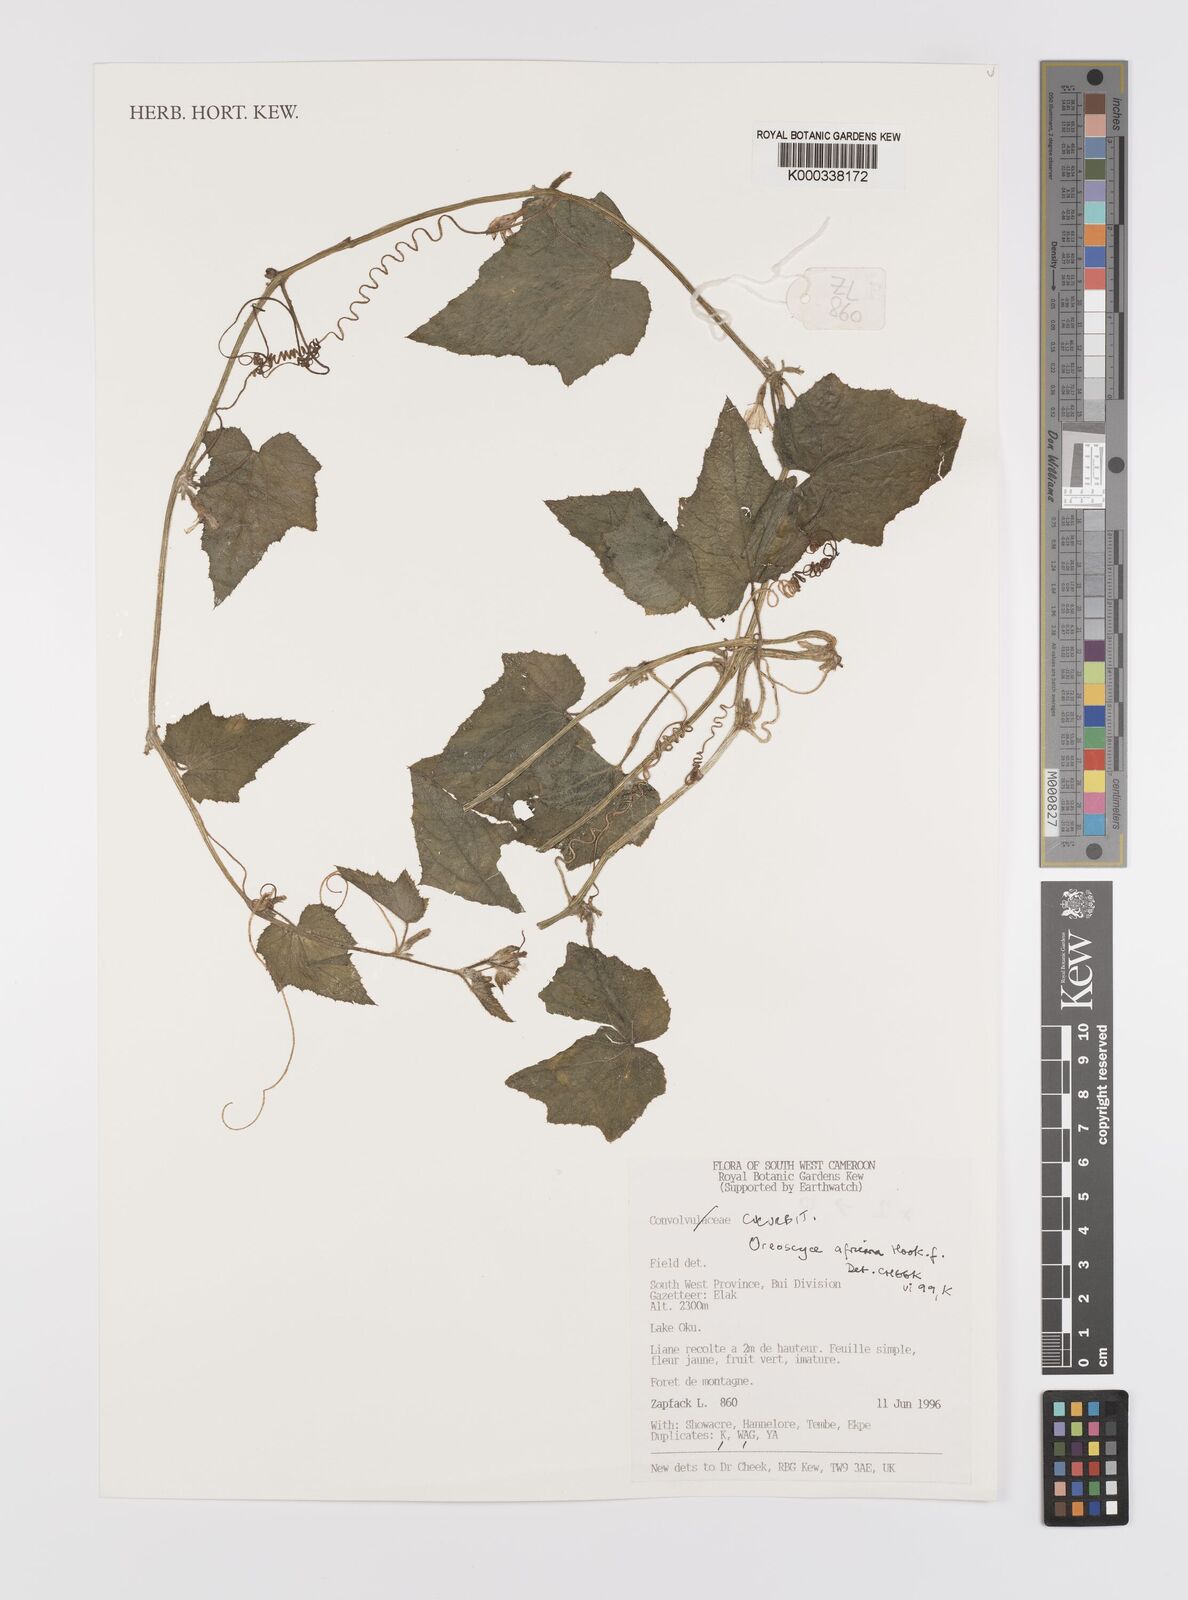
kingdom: Plantae
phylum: Tracheophyta
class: Magnoliopsida
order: Cucurbitales
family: Cucurbitaceae
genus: Cucumis
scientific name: Cucumis oreosyce
